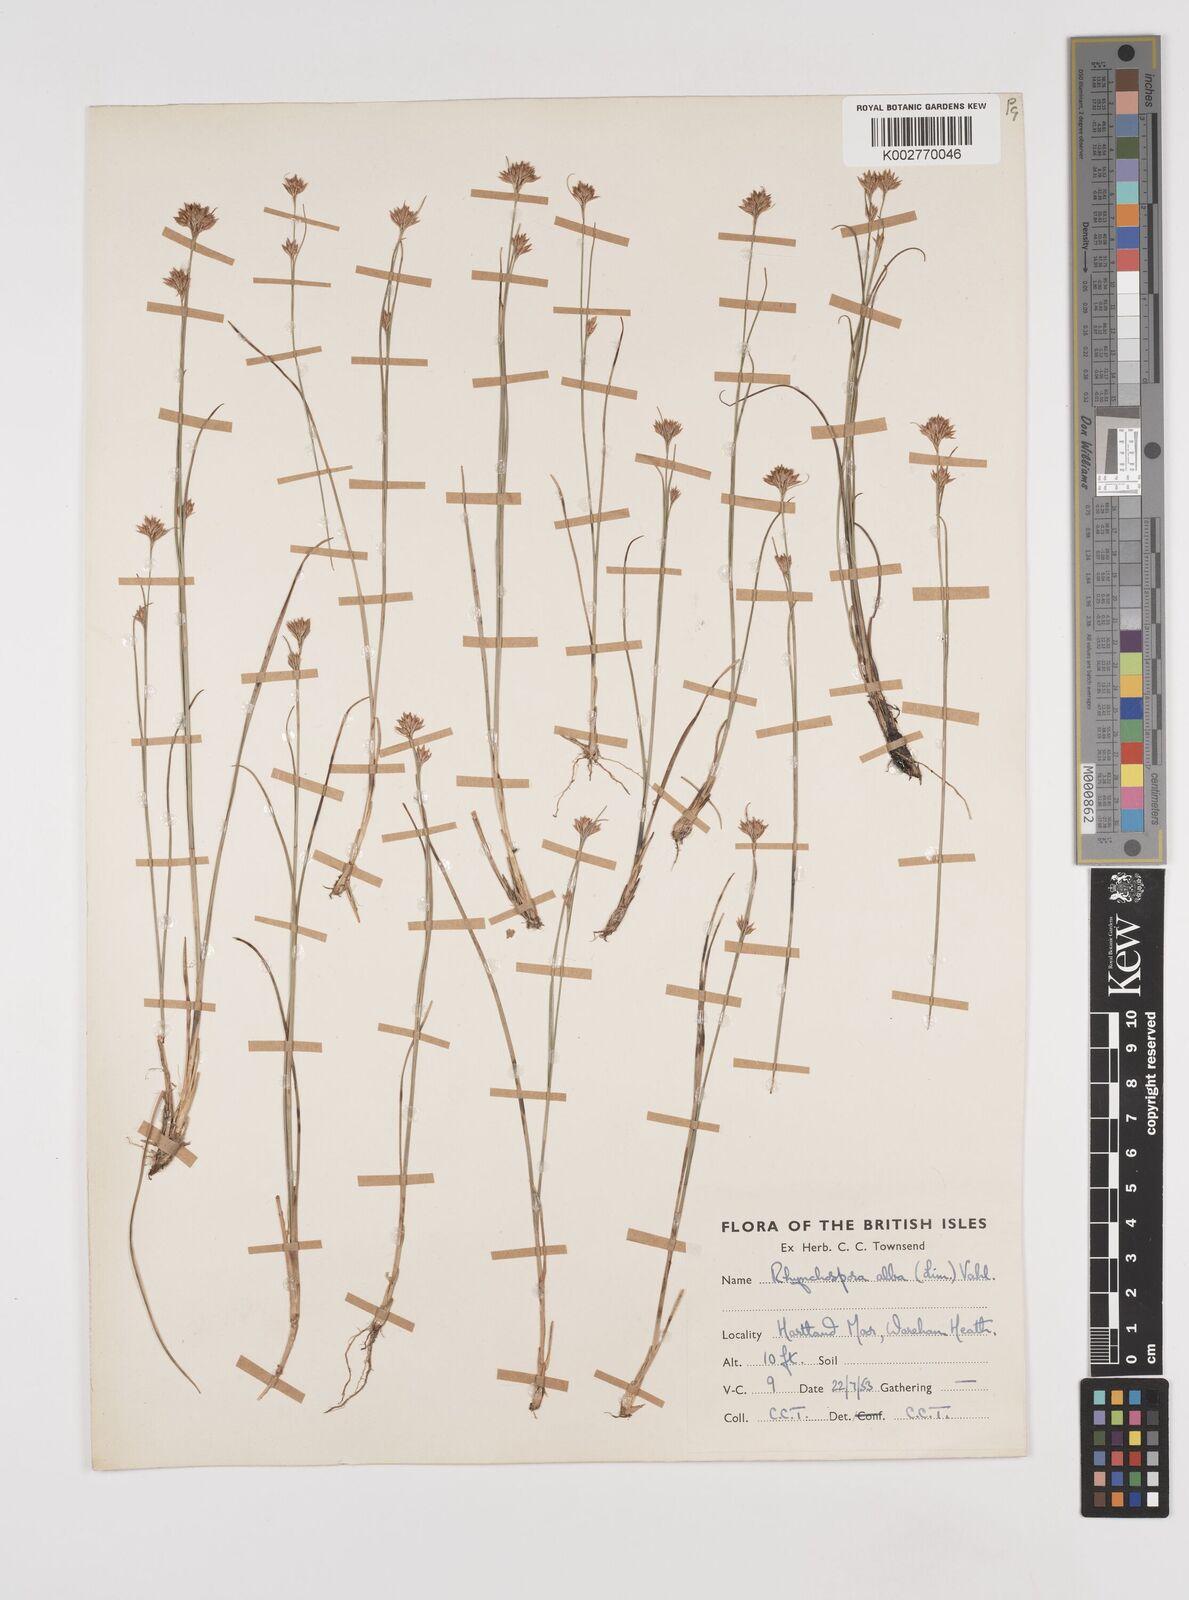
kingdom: Plantae
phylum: Tracheophyta
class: Liliopsida
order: Poales
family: Cyperaceae
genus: Rhynchospora
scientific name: Rhynchospora alba
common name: White beak-sedge
